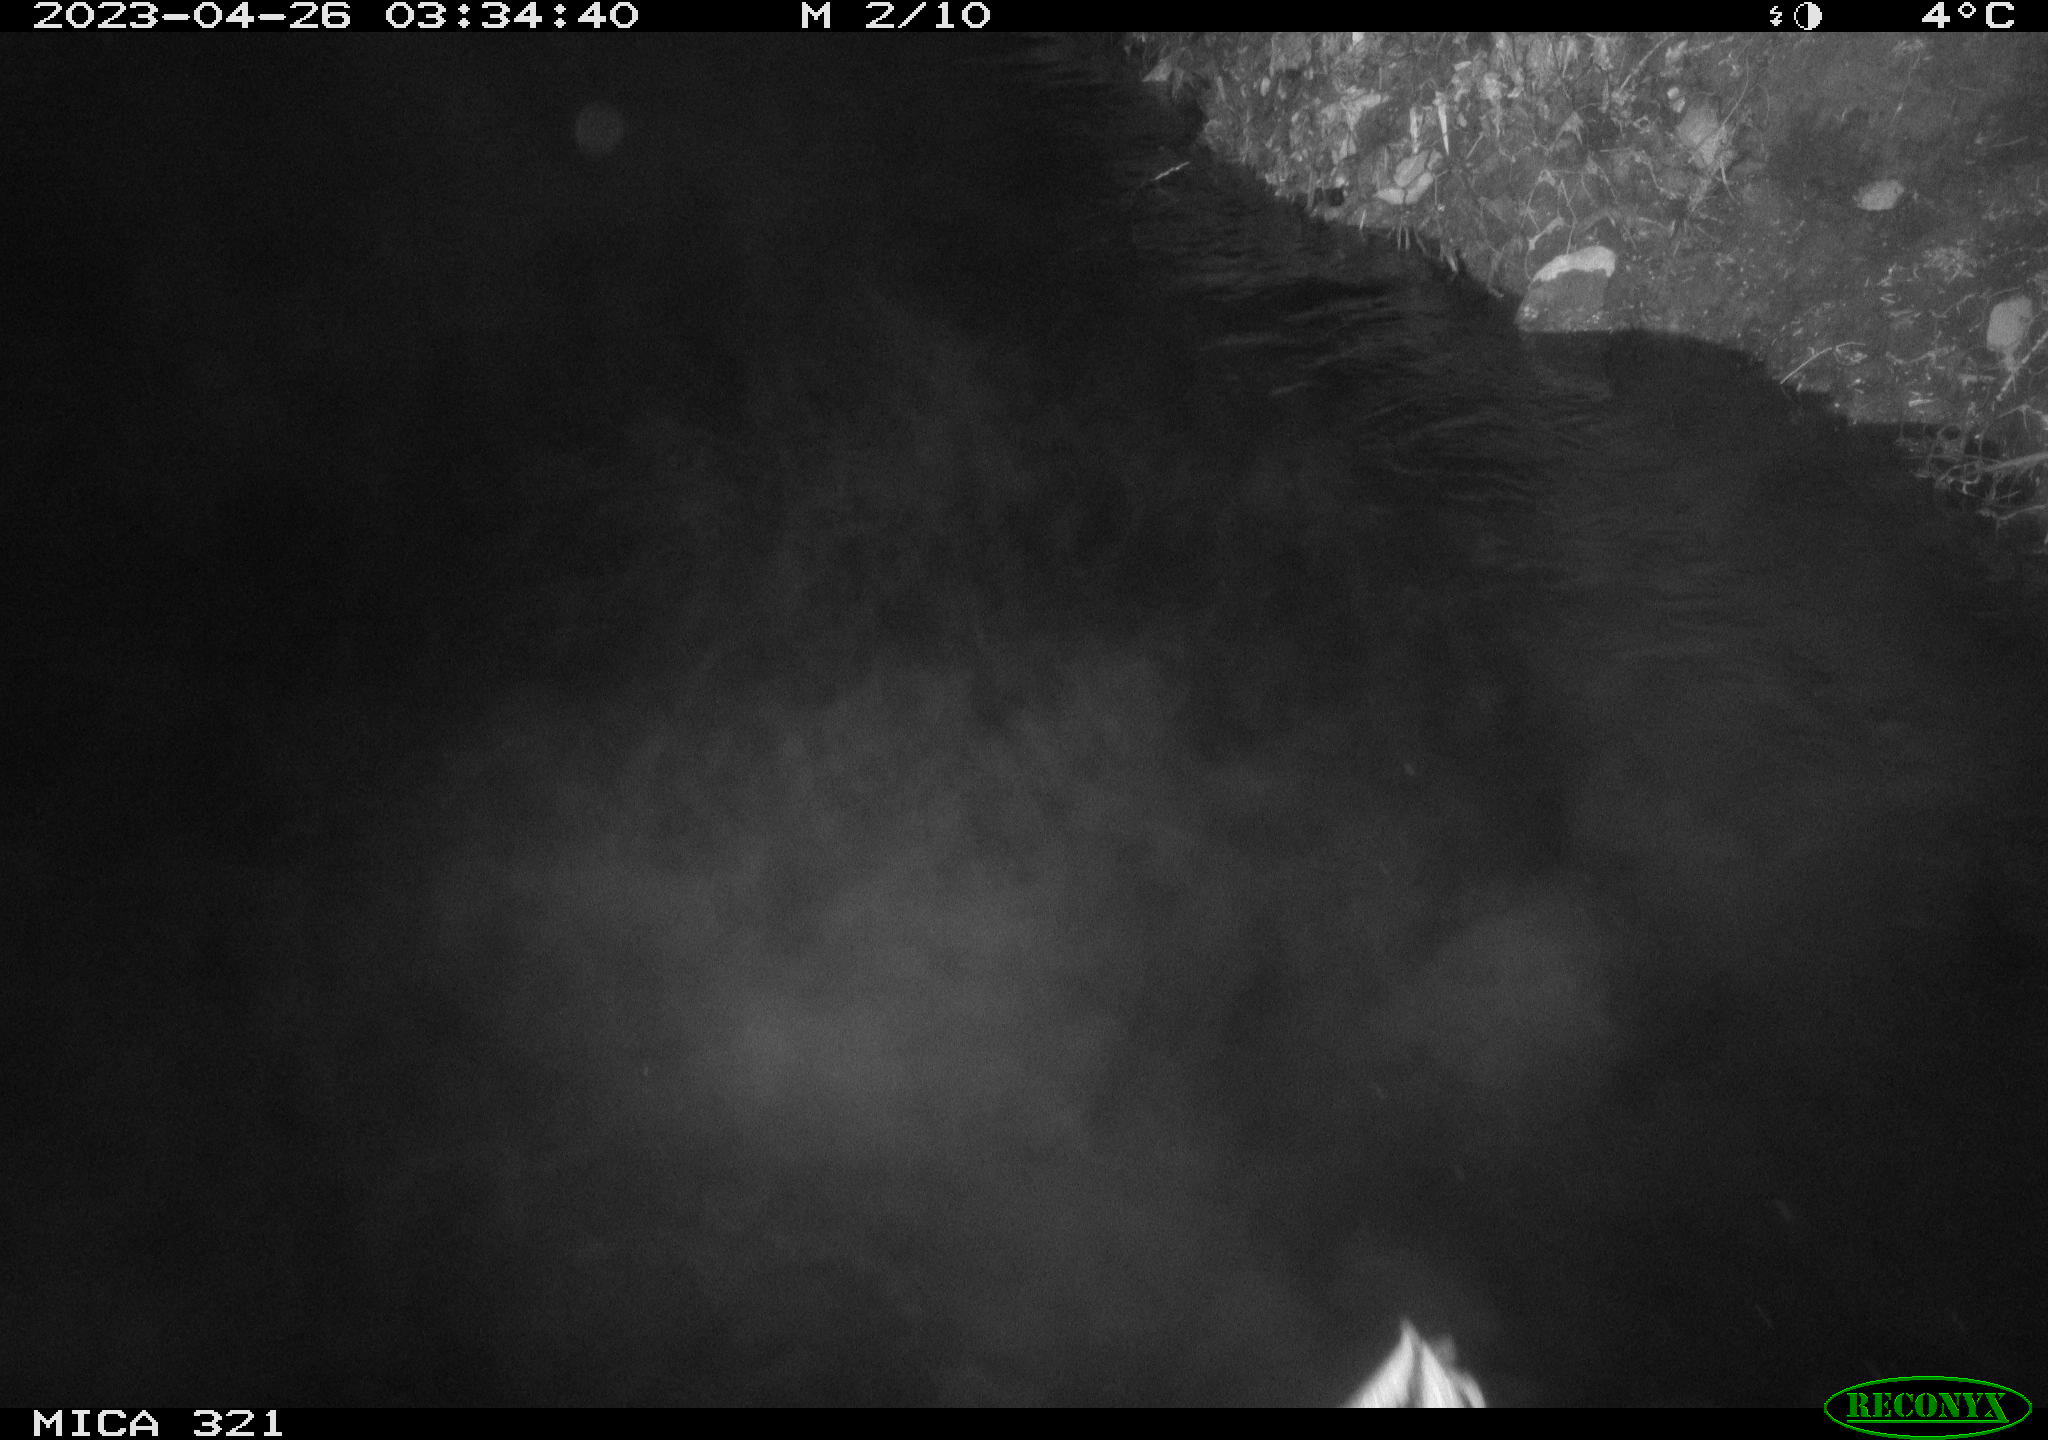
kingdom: Animalia
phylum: Chordata
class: Aves
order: Anseriformes
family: Anatidae
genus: Anas
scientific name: Anas
